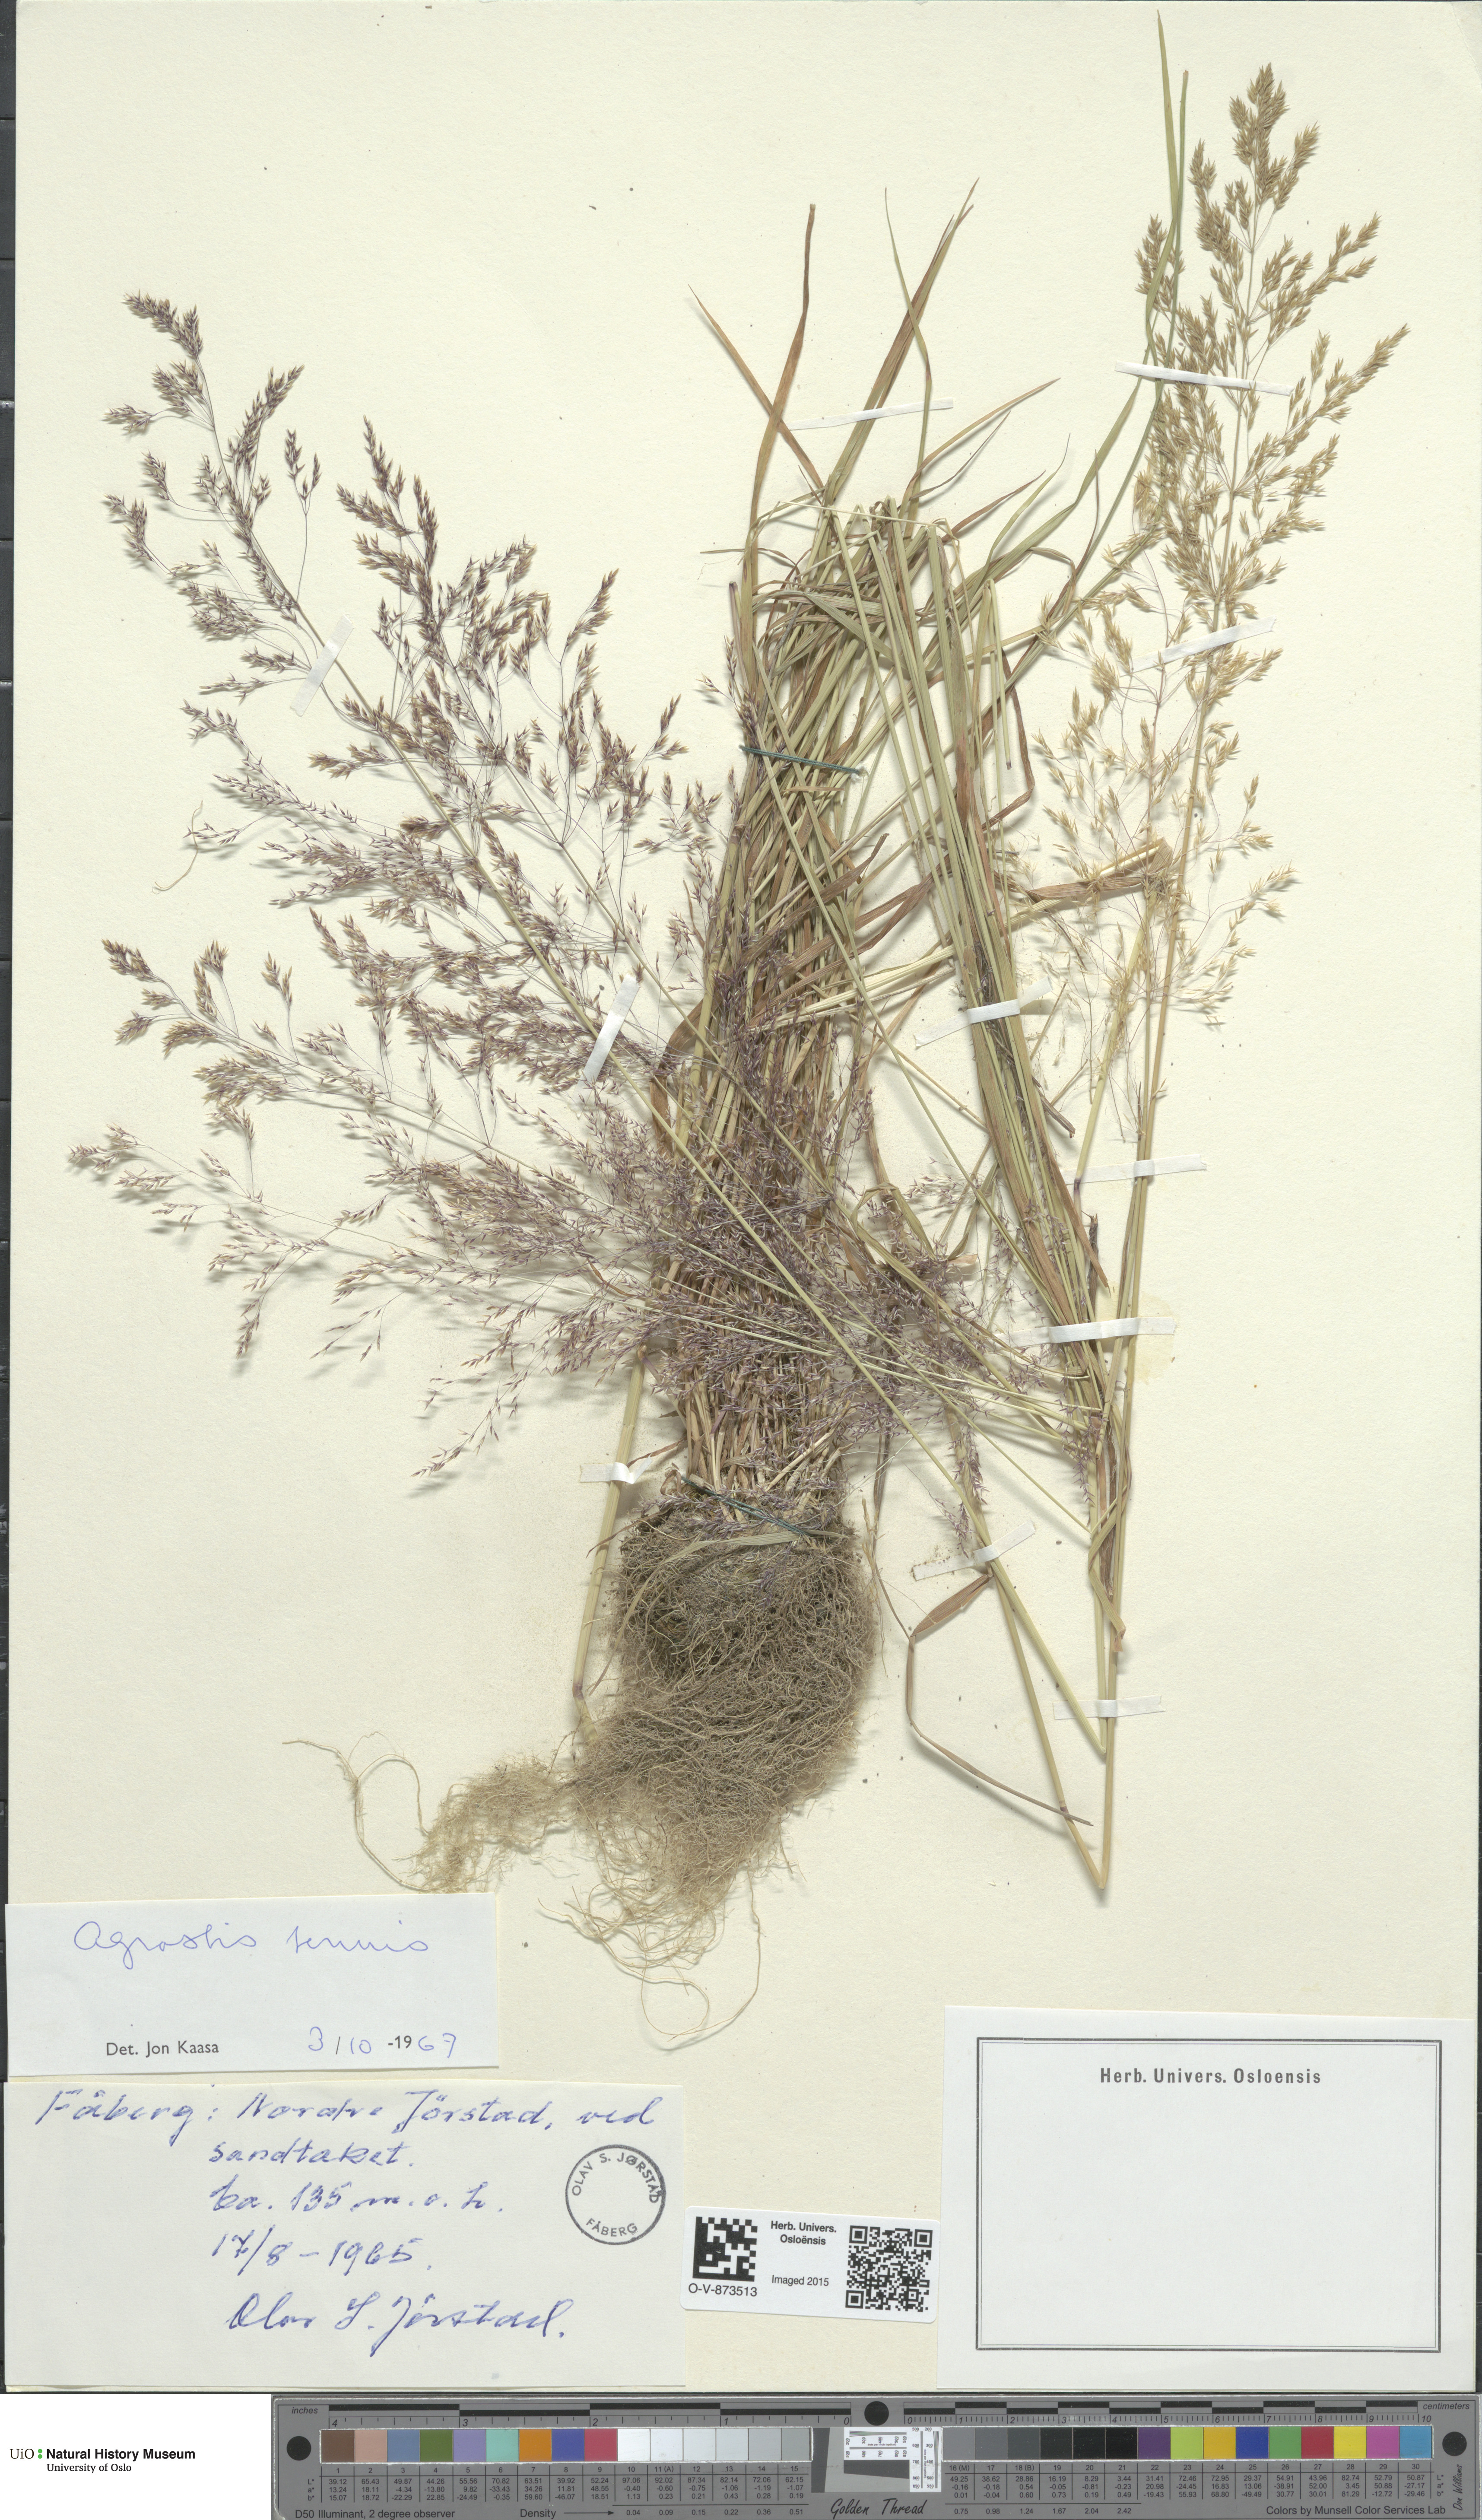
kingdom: Plantae
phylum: Tracheophyta
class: Liliopsida
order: Poales
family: Poaceae
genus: Agrostis
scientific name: Agrostis capillaris
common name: Colonial bentgrass
